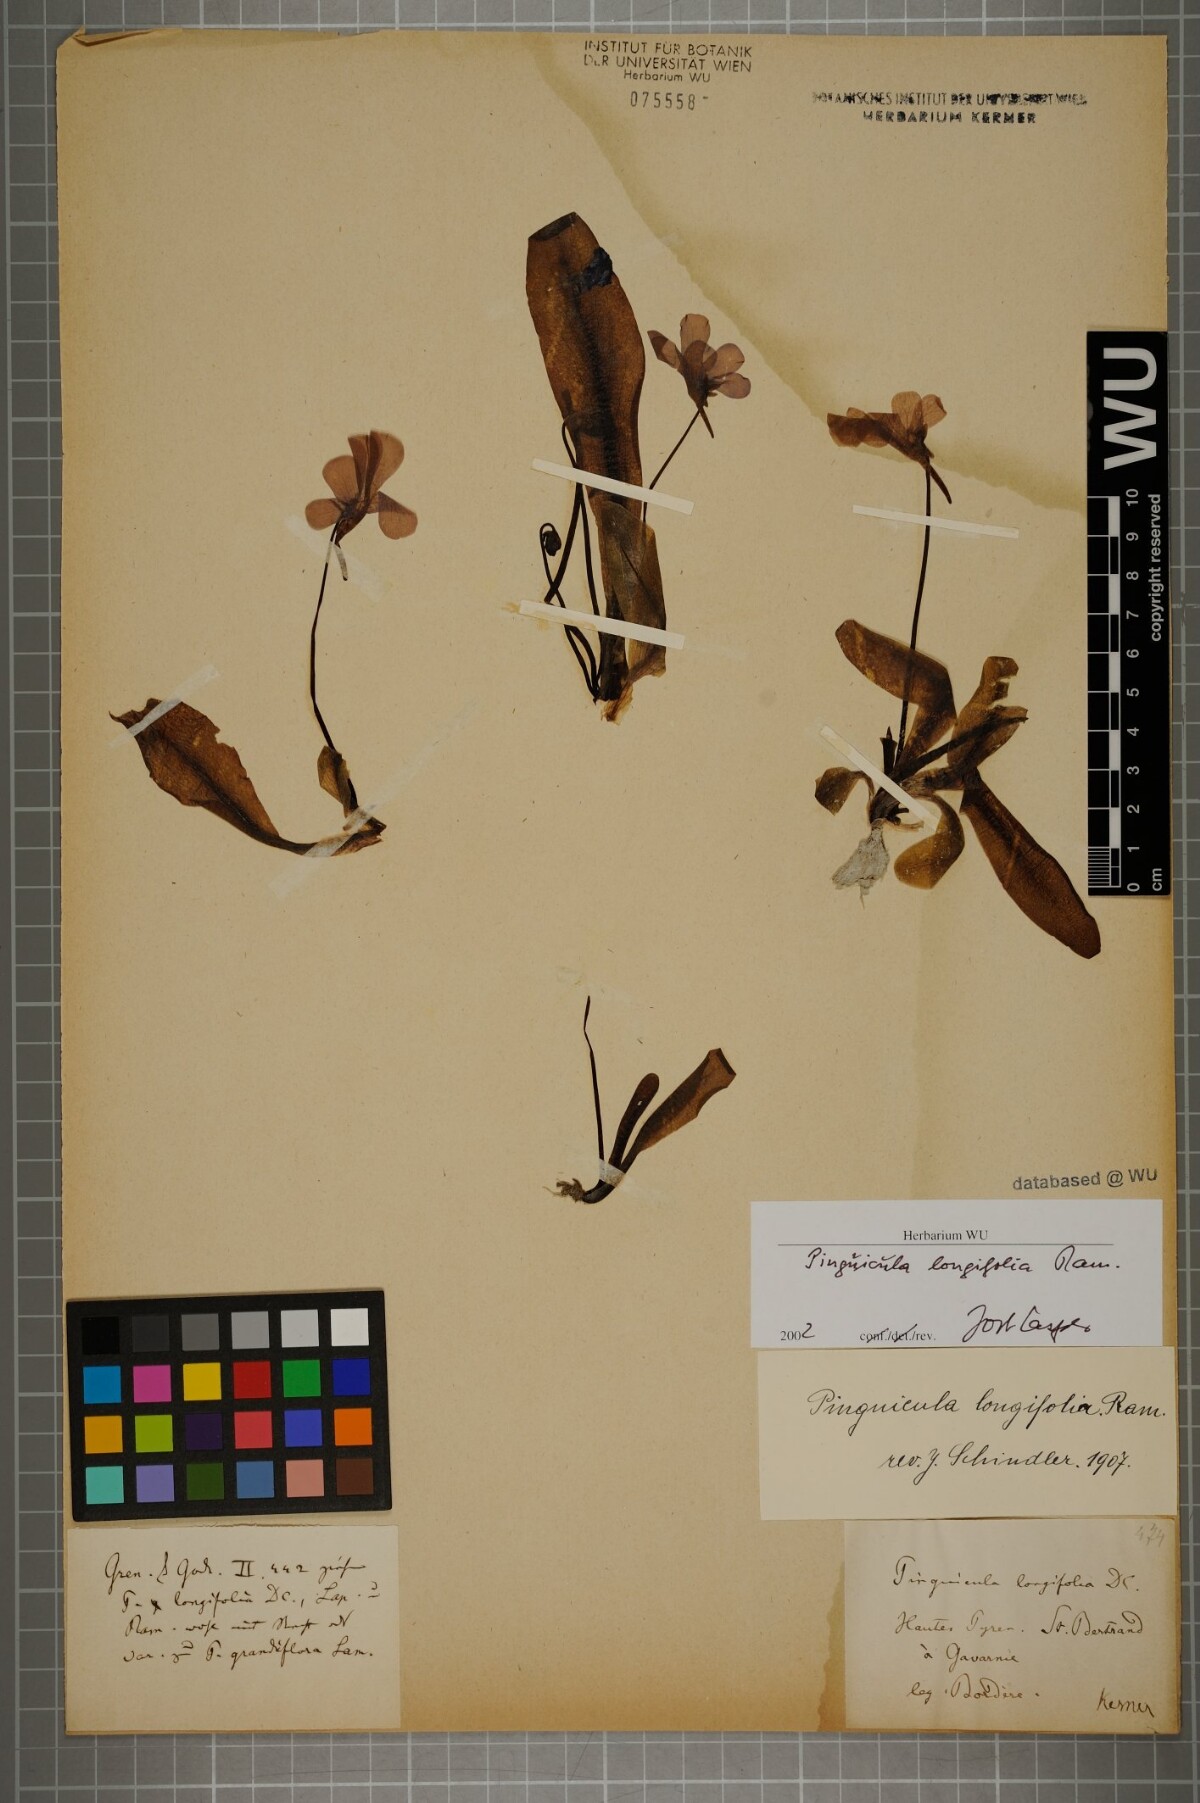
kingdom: Plantae
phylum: Tracheophyta
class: Magnoliopsida
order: Lamiales
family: Lentibulariaceae
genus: Pinguicula
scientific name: Pinguicula longifolia
